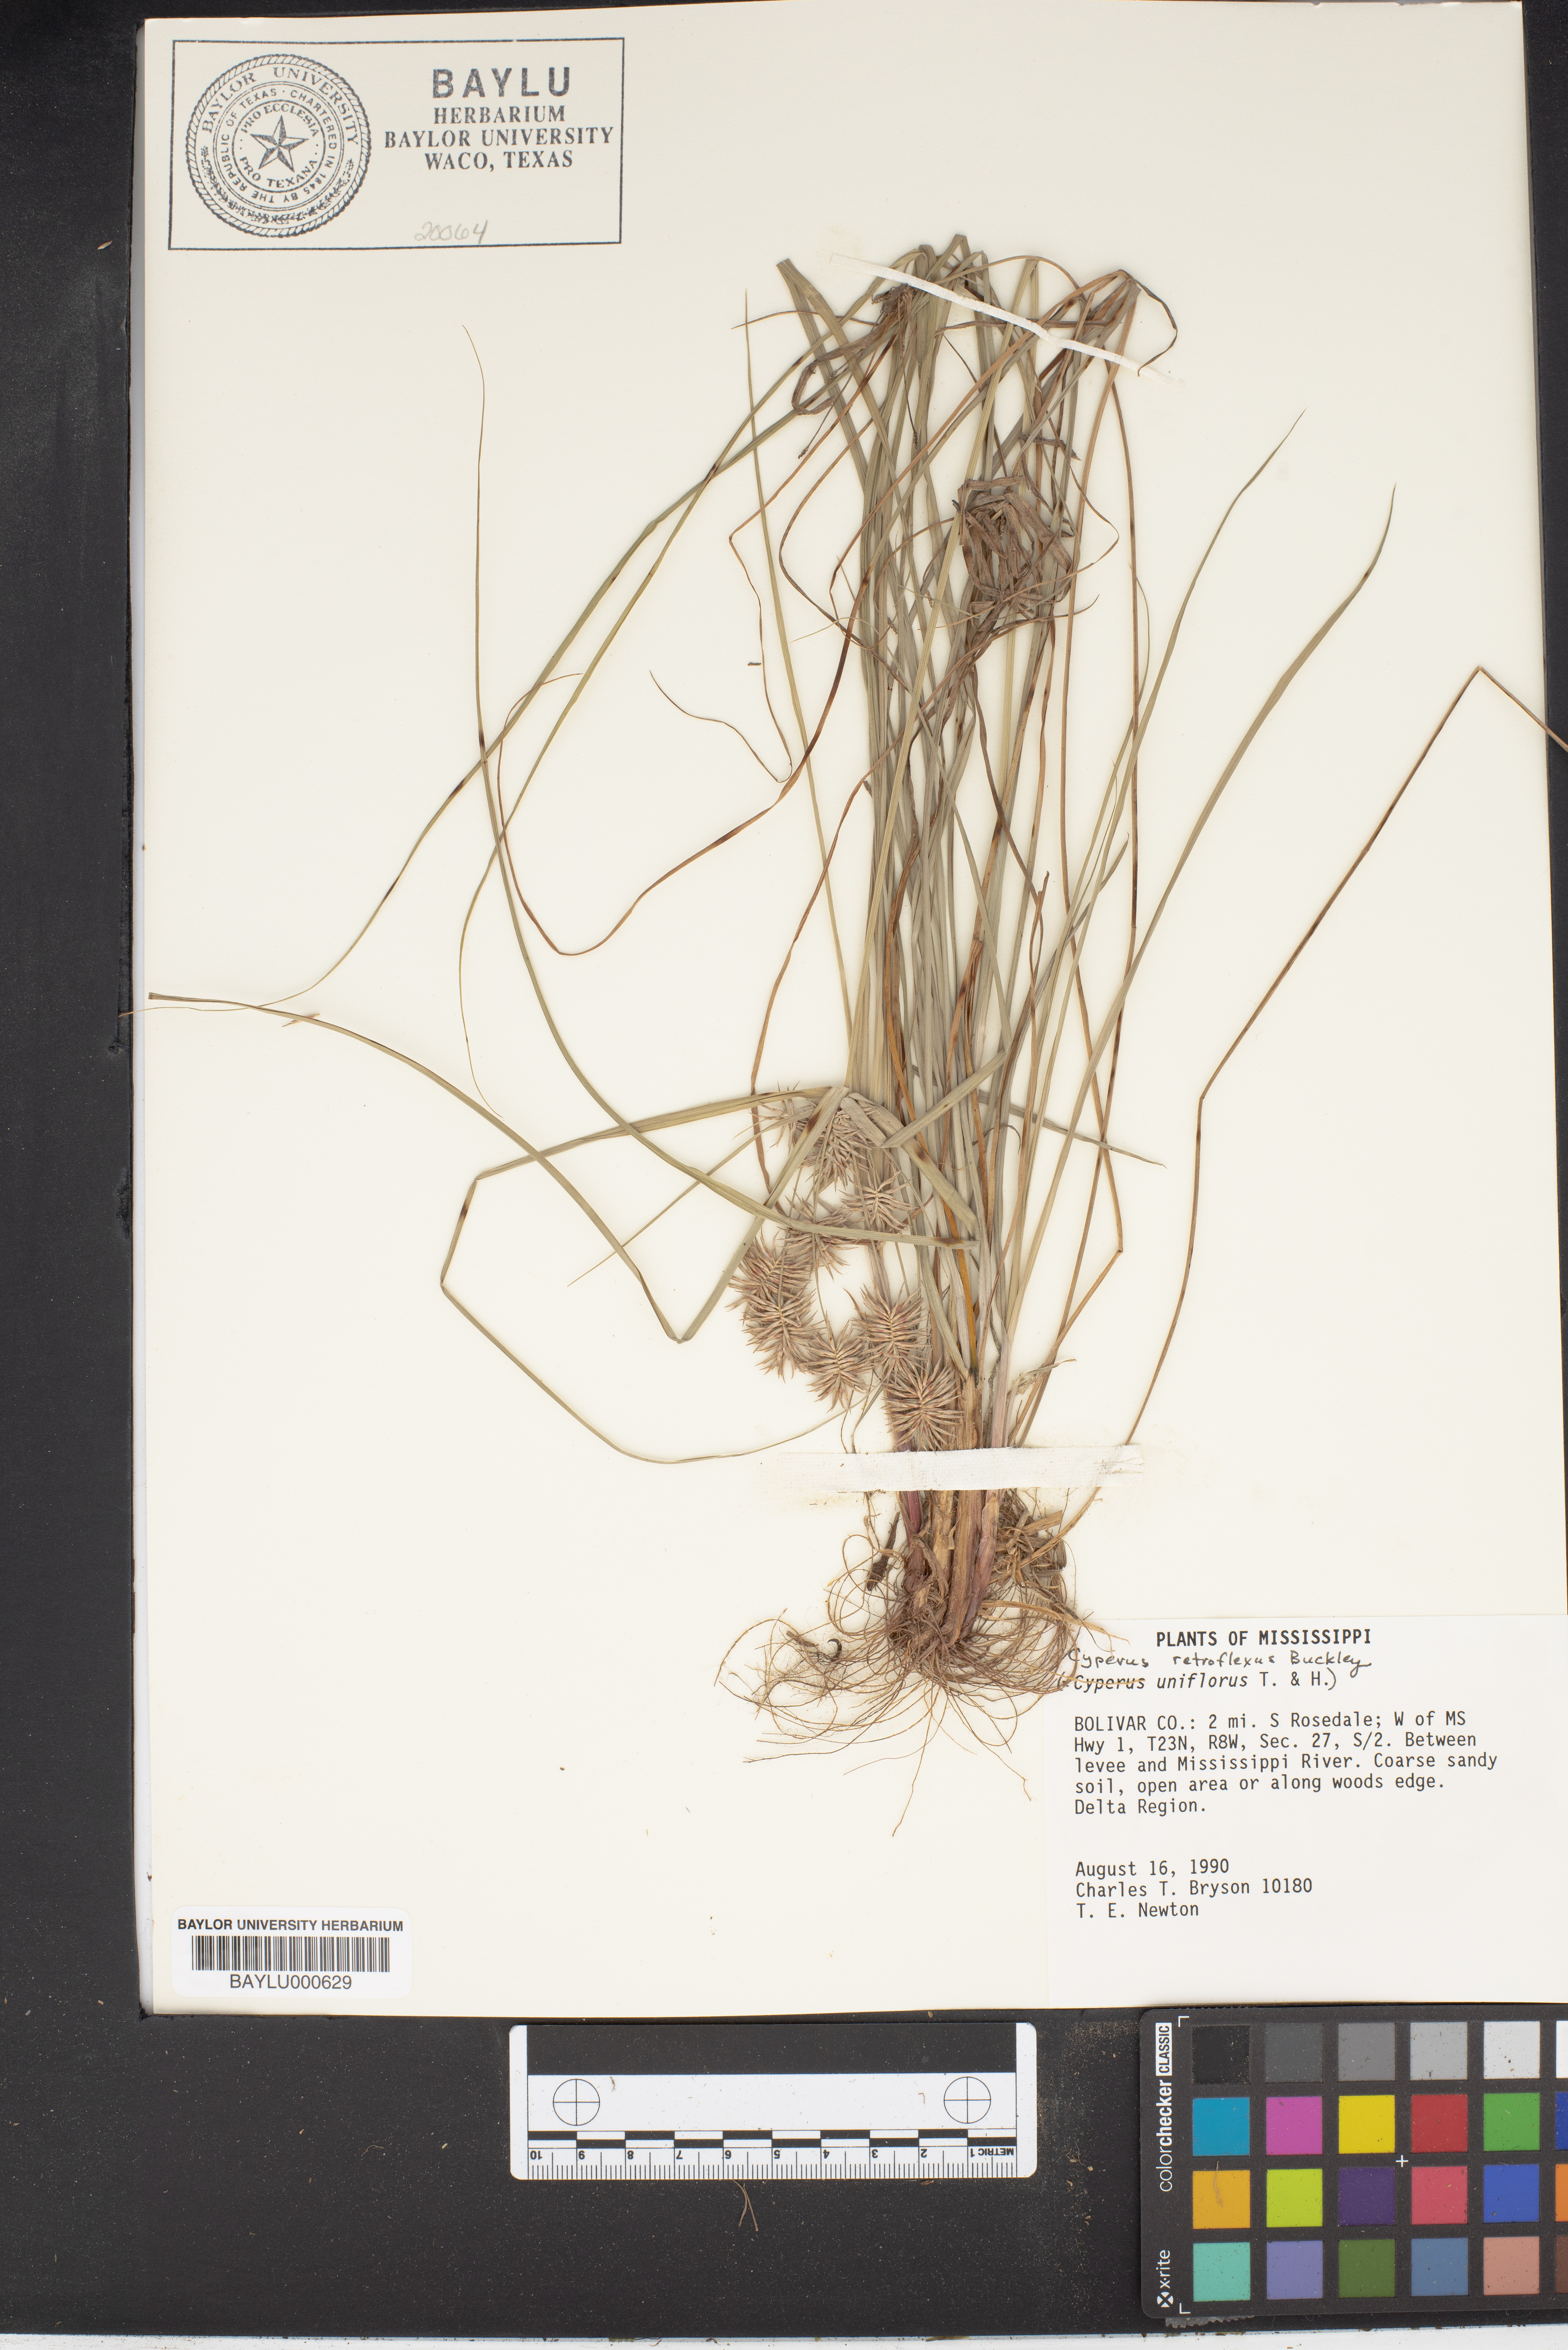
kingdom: Plantae
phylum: Tracheophyta
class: Liliopsida
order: Poales
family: Cyperaceae
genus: Cyperus
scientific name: Cyperus retroflexus
